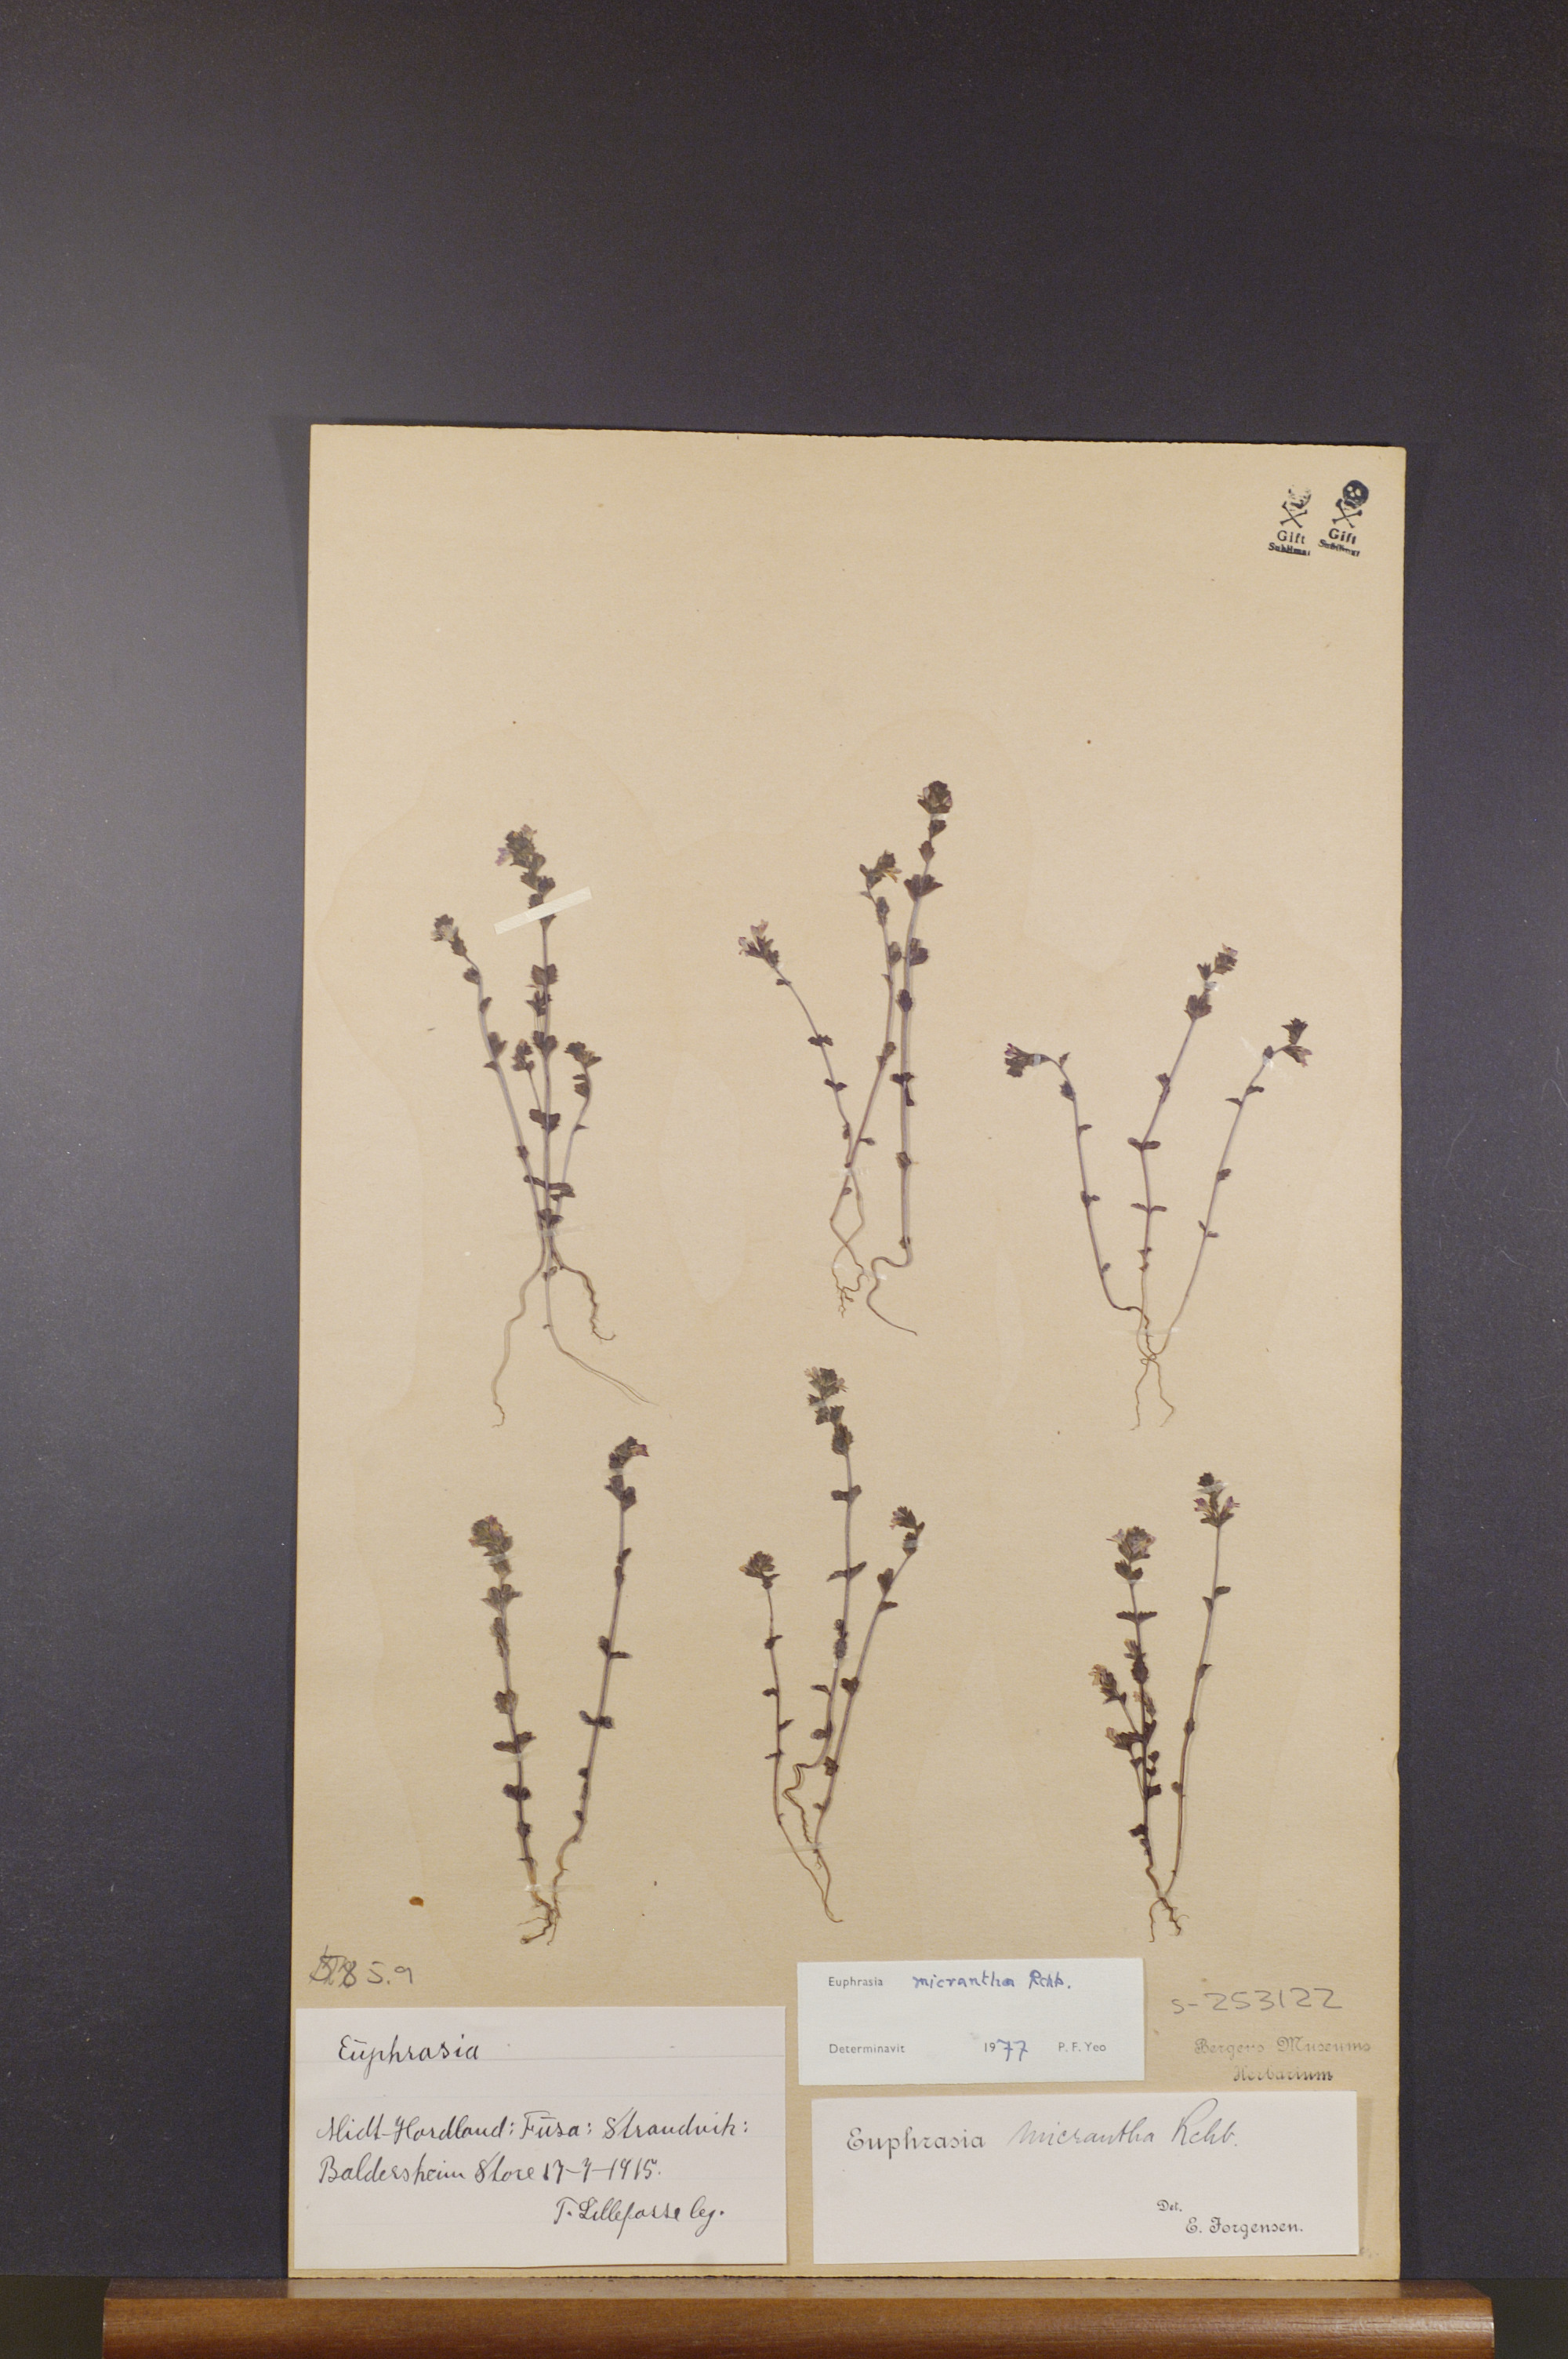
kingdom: Plantae
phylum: Tracheophyta
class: Magnoliopsida
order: Lamiales
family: Orobanchaceae
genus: Euphrasia
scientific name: Euphrasia micrantha
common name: Northern eyebright
